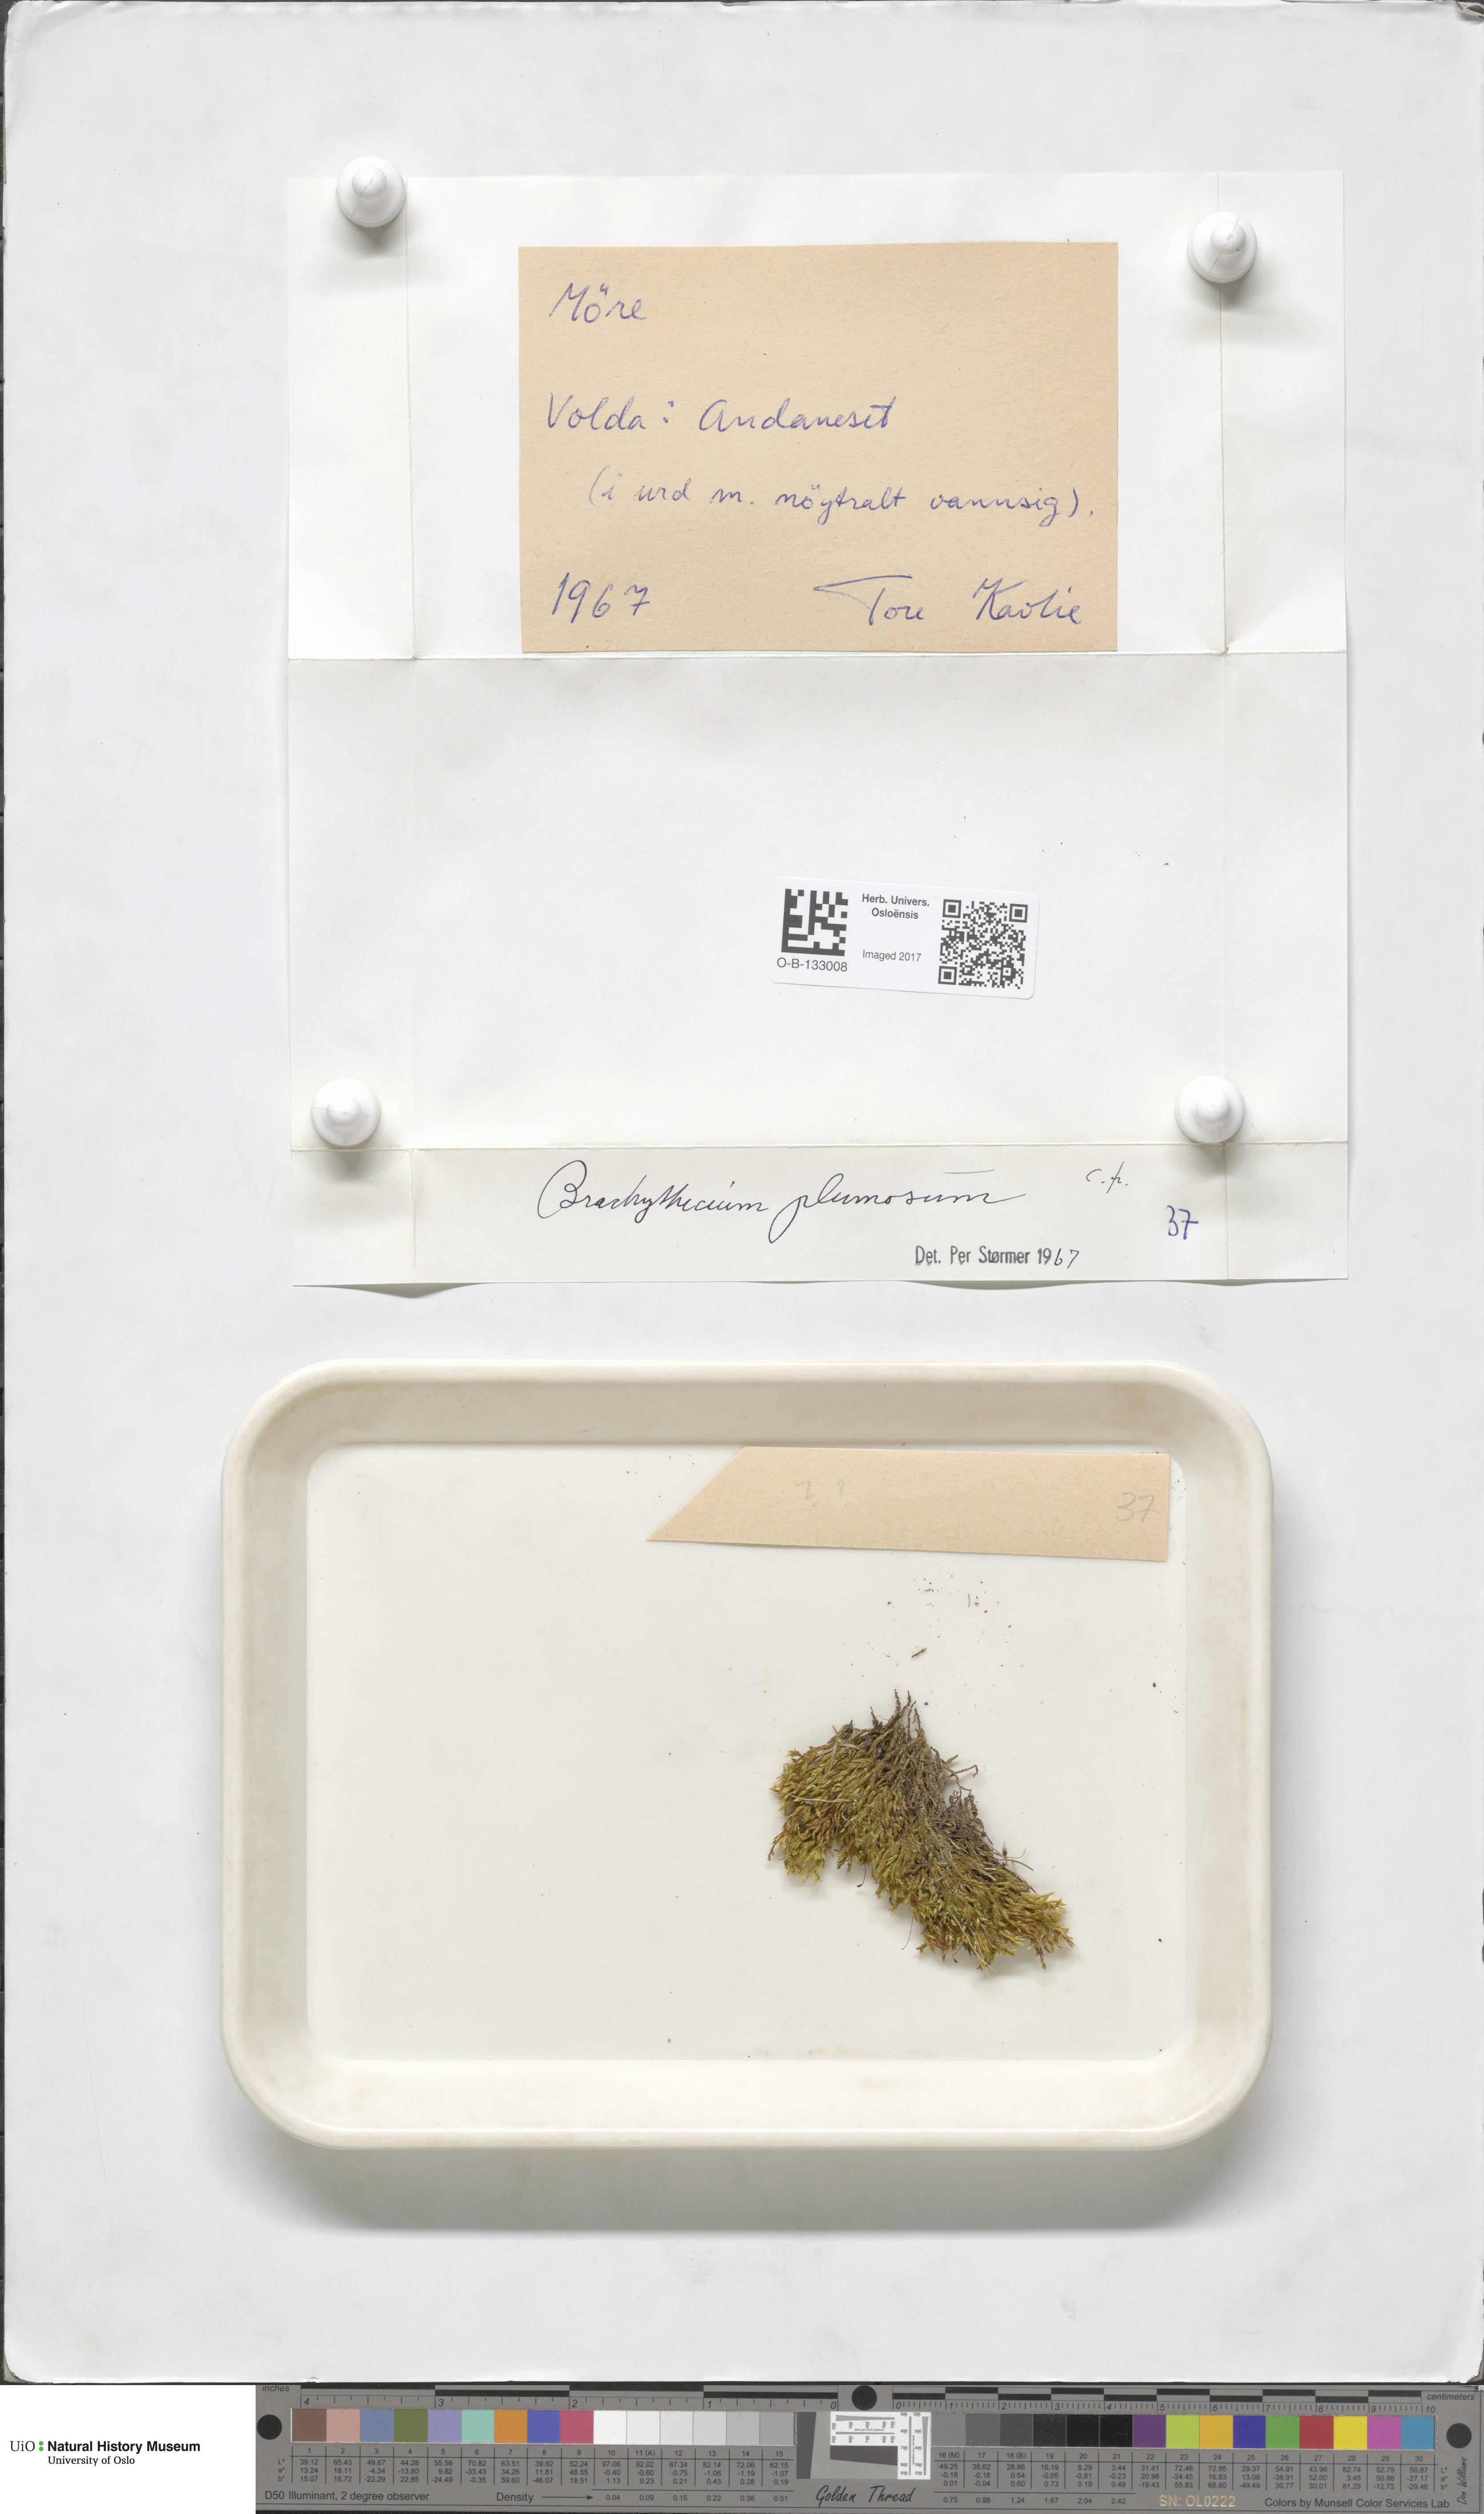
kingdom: Plantae
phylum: Bryophyta
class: Bryopsida
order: Hypnales
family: Brachytheciaceae
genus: Sciuro-hypnum
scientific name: Sciuro-hypnum plumosum
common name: Rusty feather-moss
